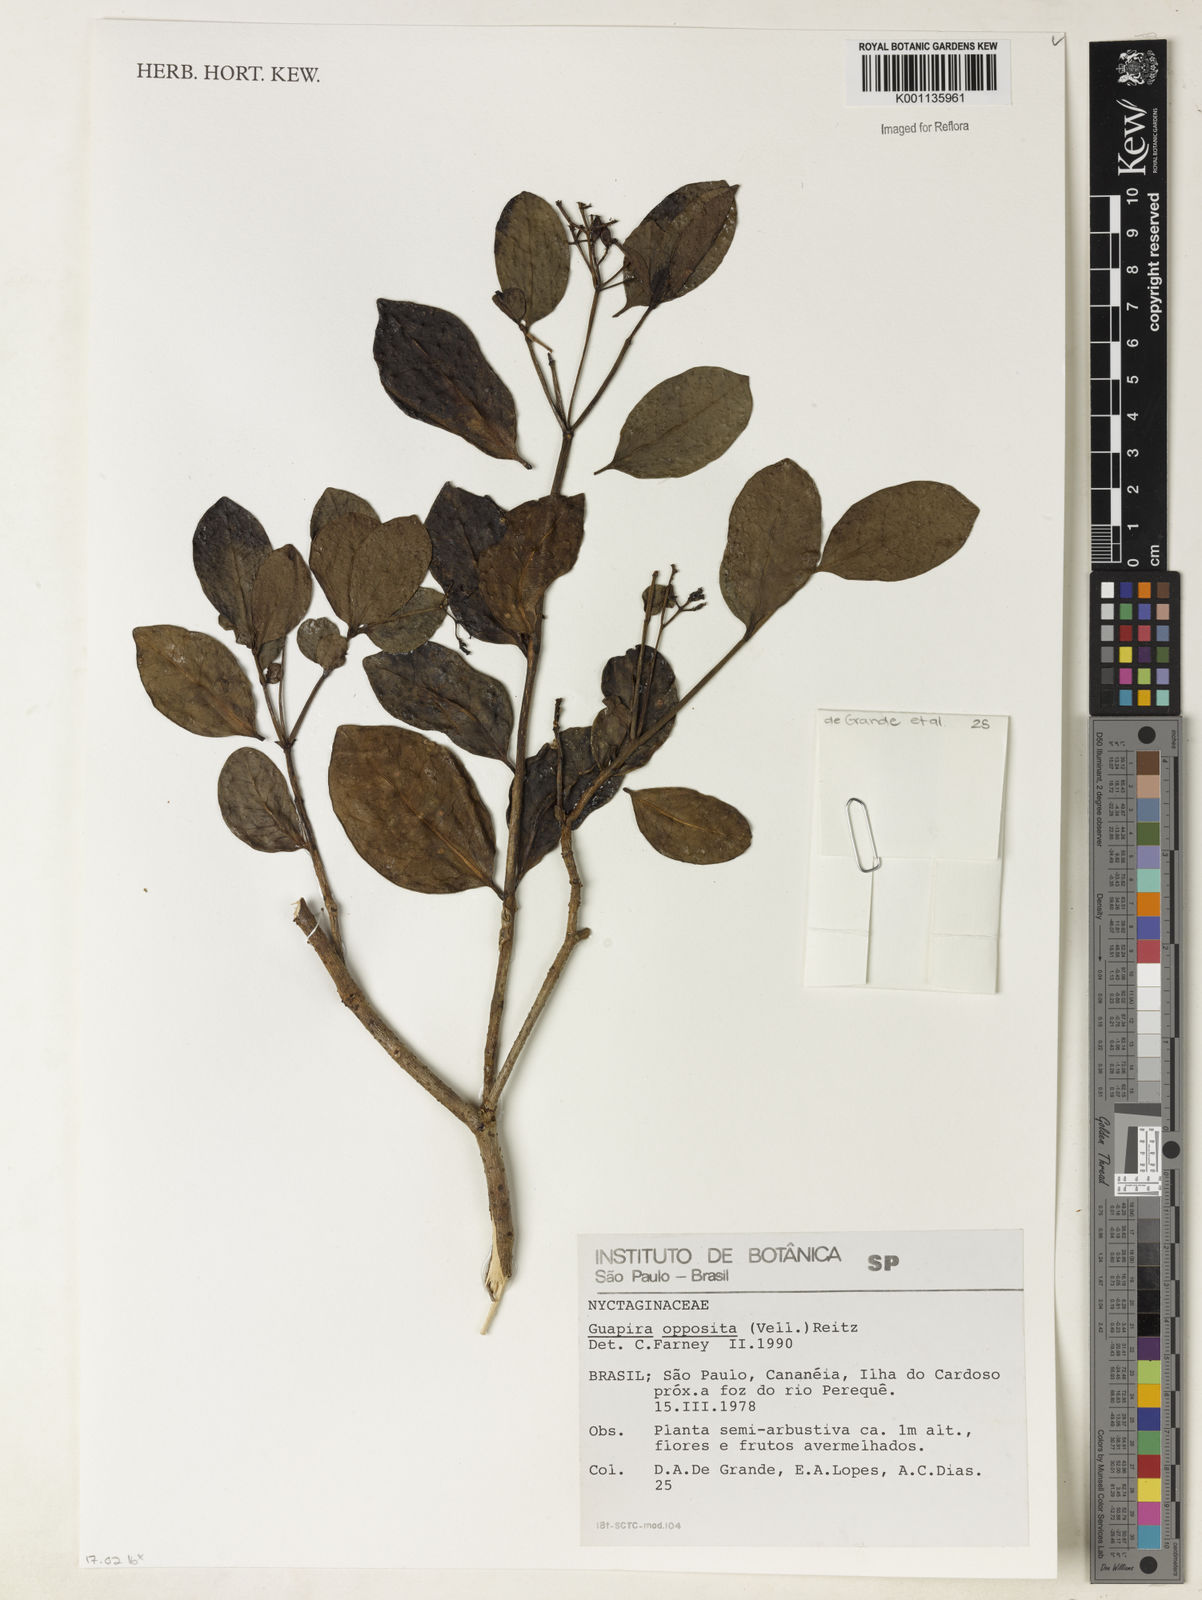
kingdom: Plantae
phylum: Tracheophyta
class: Magnoliopsida
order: Caryophyllales
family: Nyctaginaceae
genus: Guapira
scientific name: Guapira opposita
